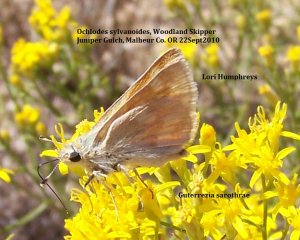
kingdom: Animalia
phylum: Arthropoda
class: Insecta
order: Lepidoptera
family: Hesperiidae
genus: Ochlodes
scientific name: Ochlodes sylvanoides
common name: Woodland Skipper
